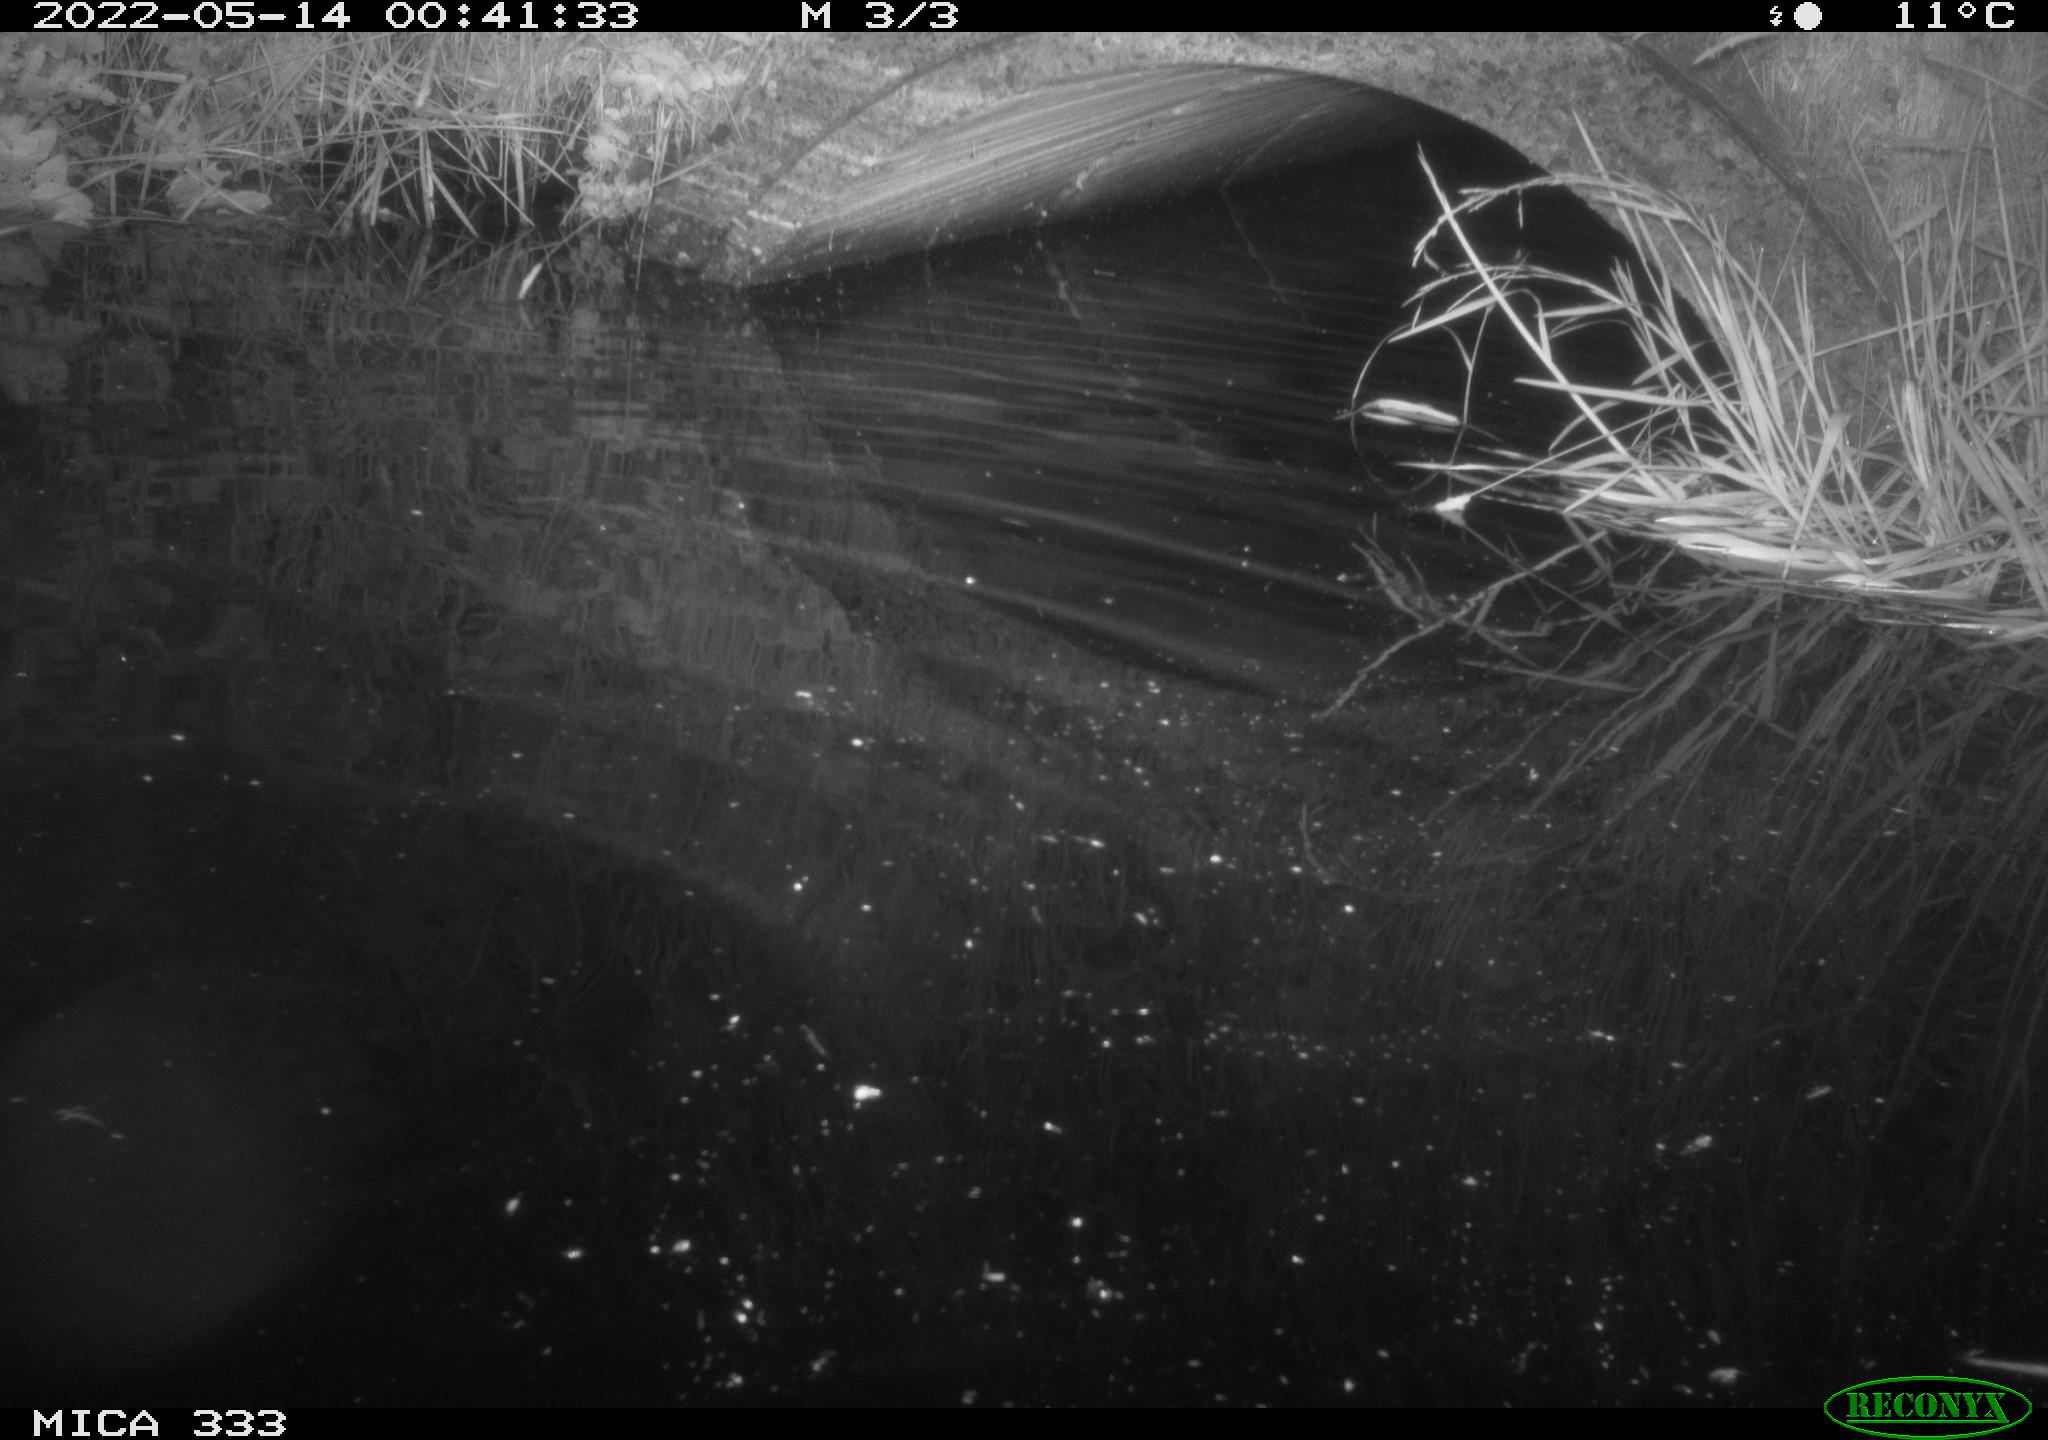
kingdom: Animalia
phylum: Chordata
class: Aves
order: Anseriformes
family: Anatidae
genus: Anas
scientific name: Anas platyrhynchos
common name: Mallard
